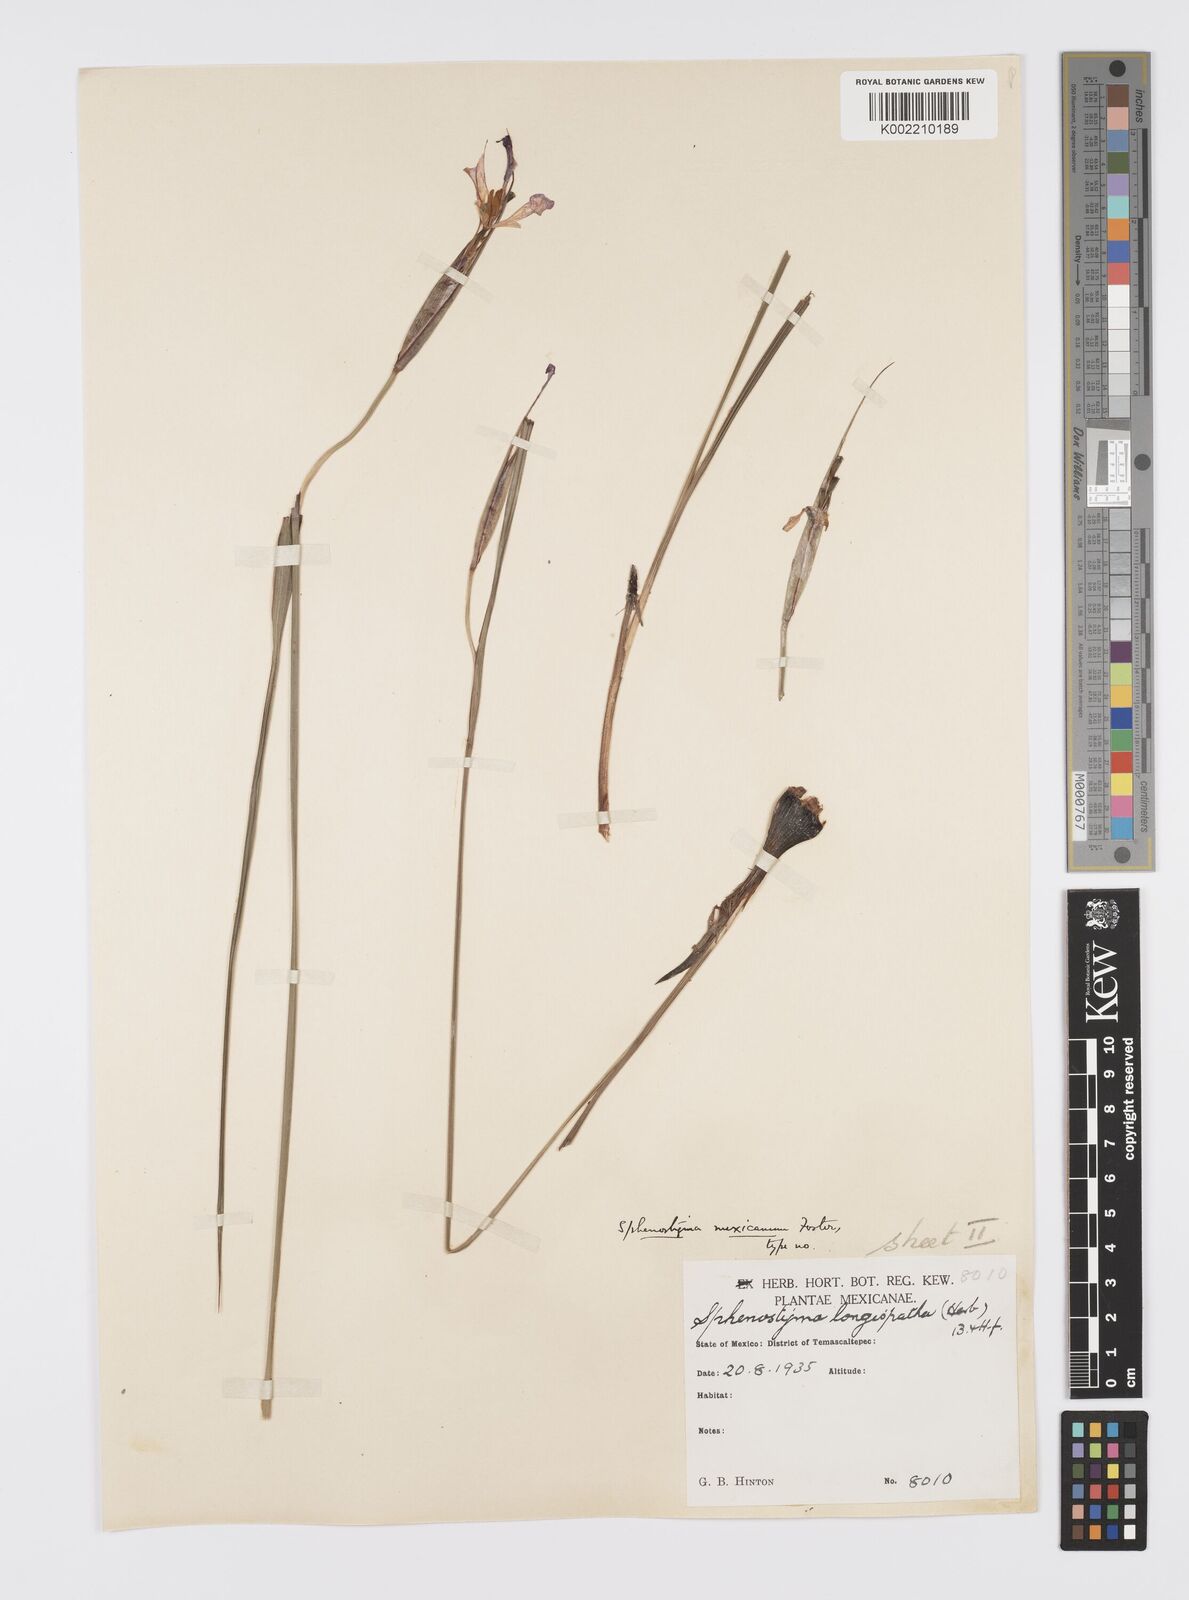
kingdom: Plantae
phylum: Tracheophyta
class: Liliopsida
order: Asparagales
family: Iridaceae
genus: Gelasine
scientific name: Gelasine
